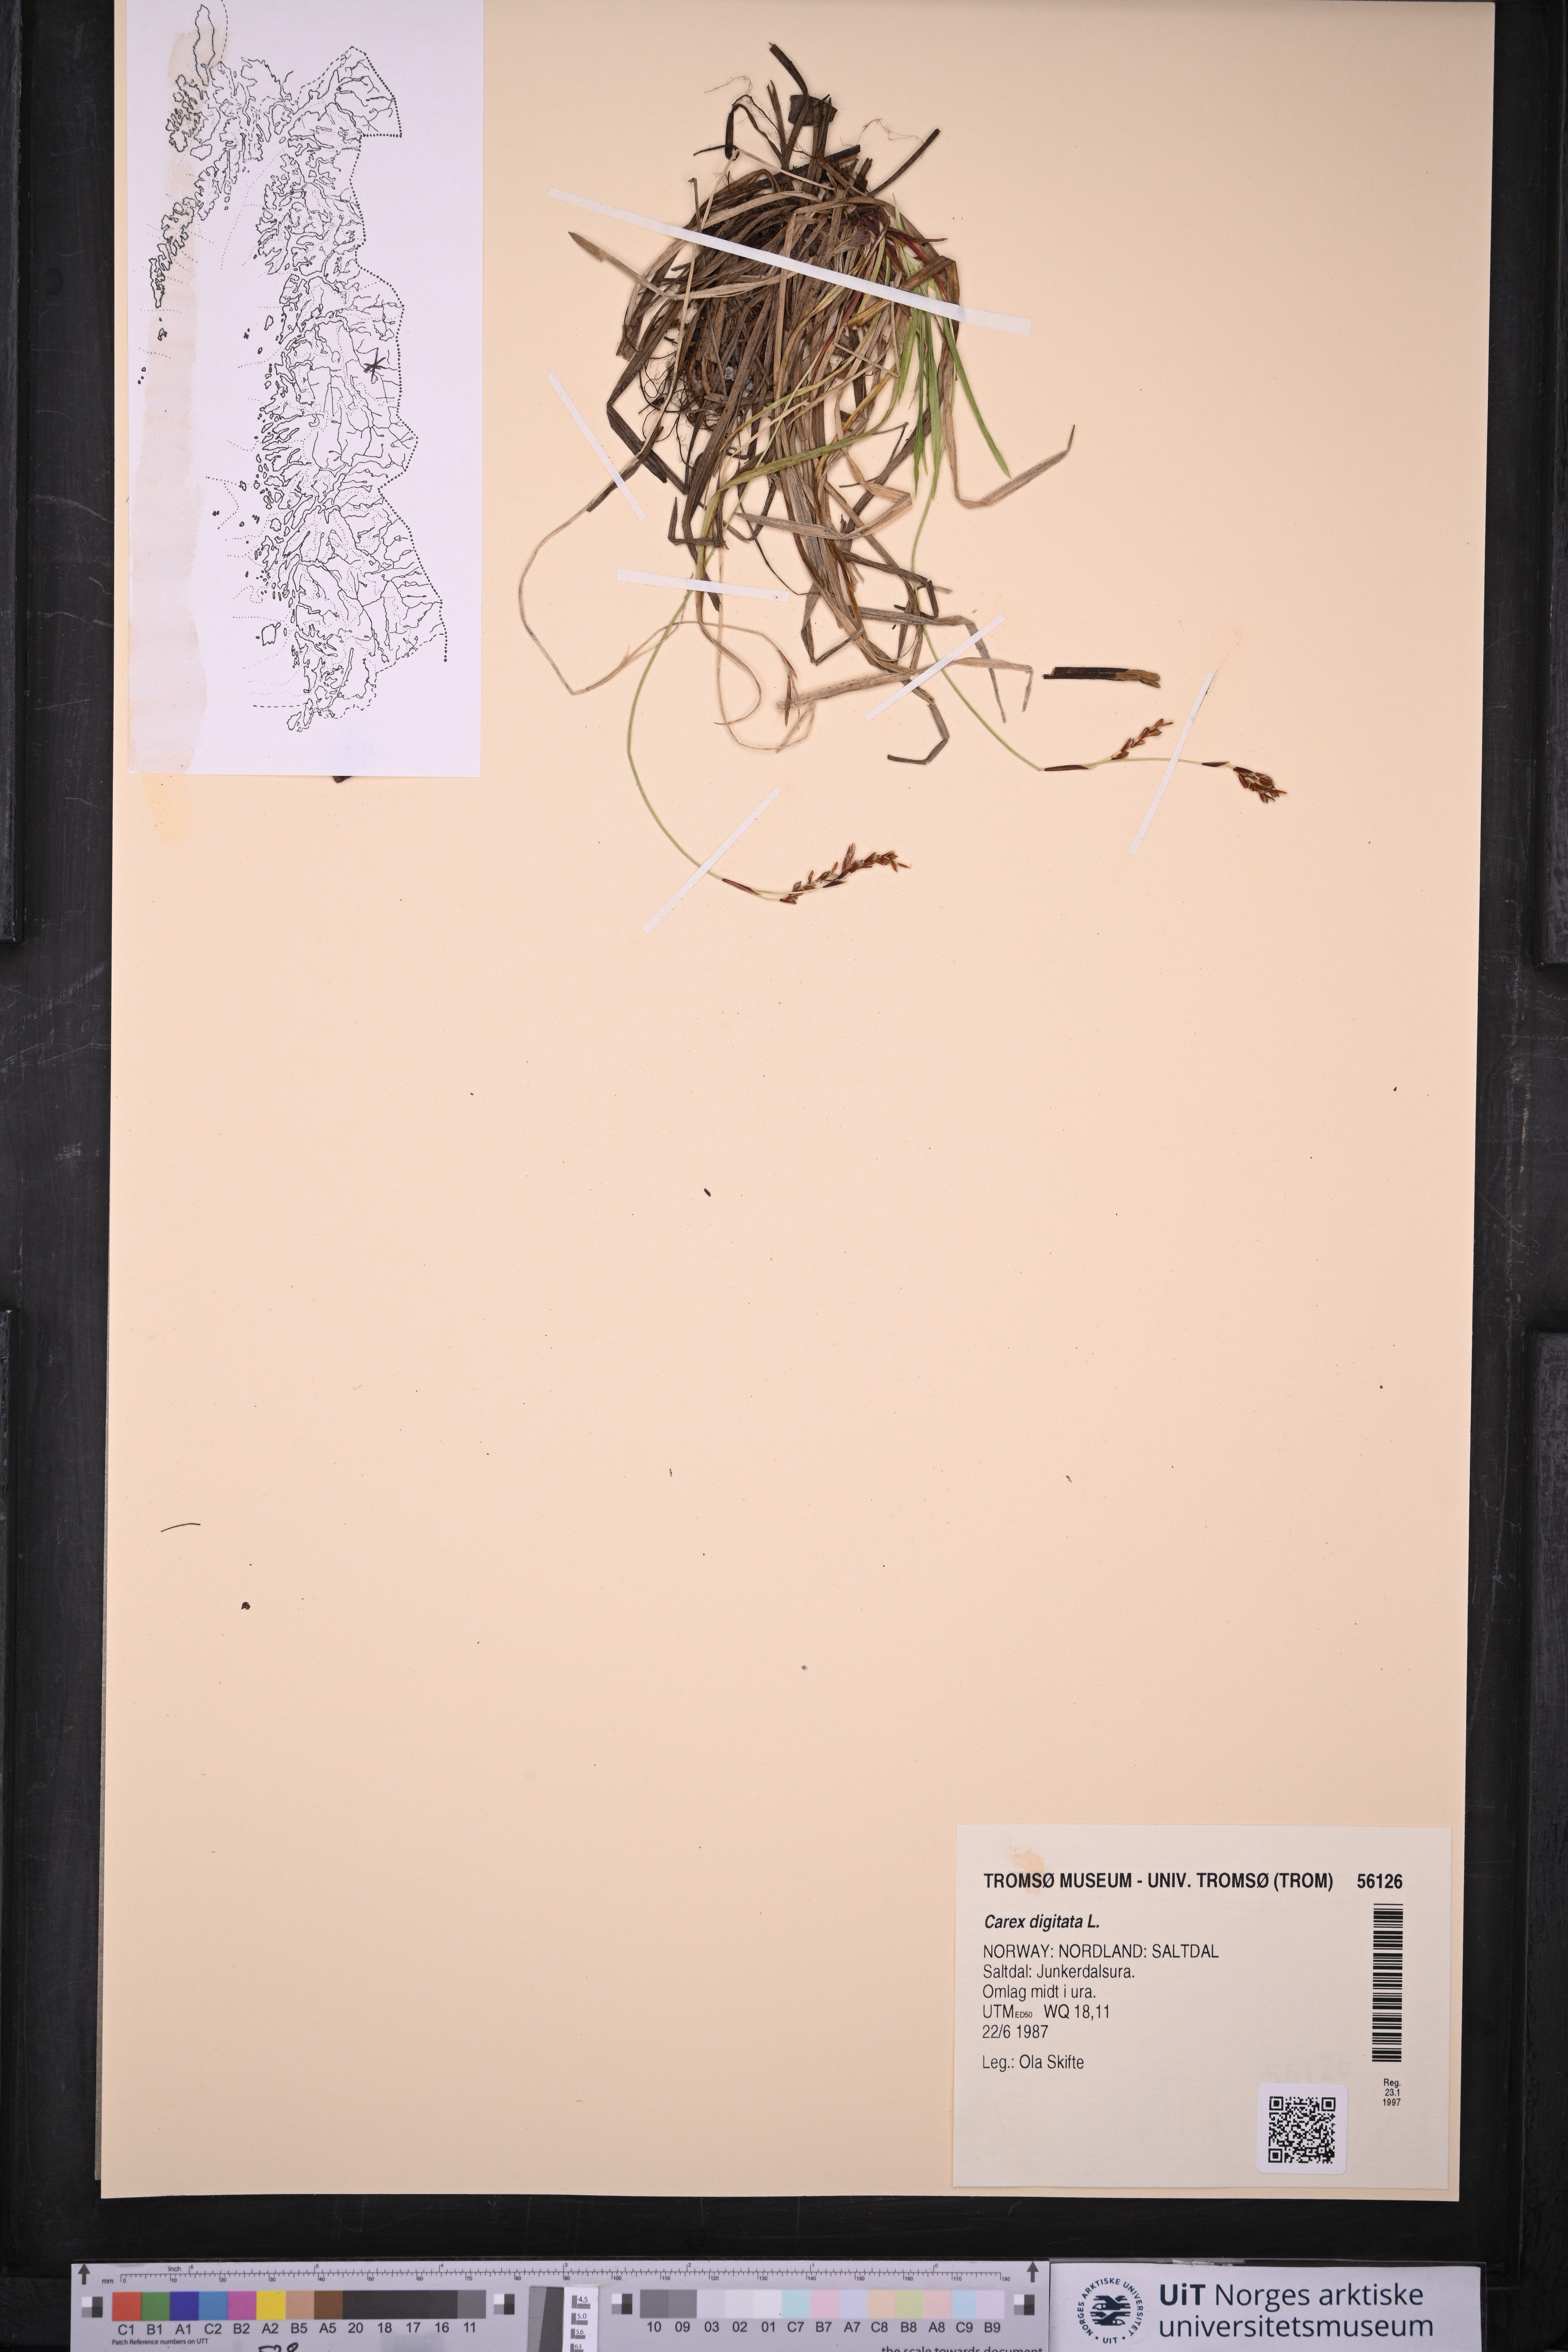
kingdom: Plantae
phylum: Tracheophyta
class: Liliopsida
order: Poales
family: Cyperaceae
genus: Carex
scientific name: Carex digitata
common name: Fingered sedge
